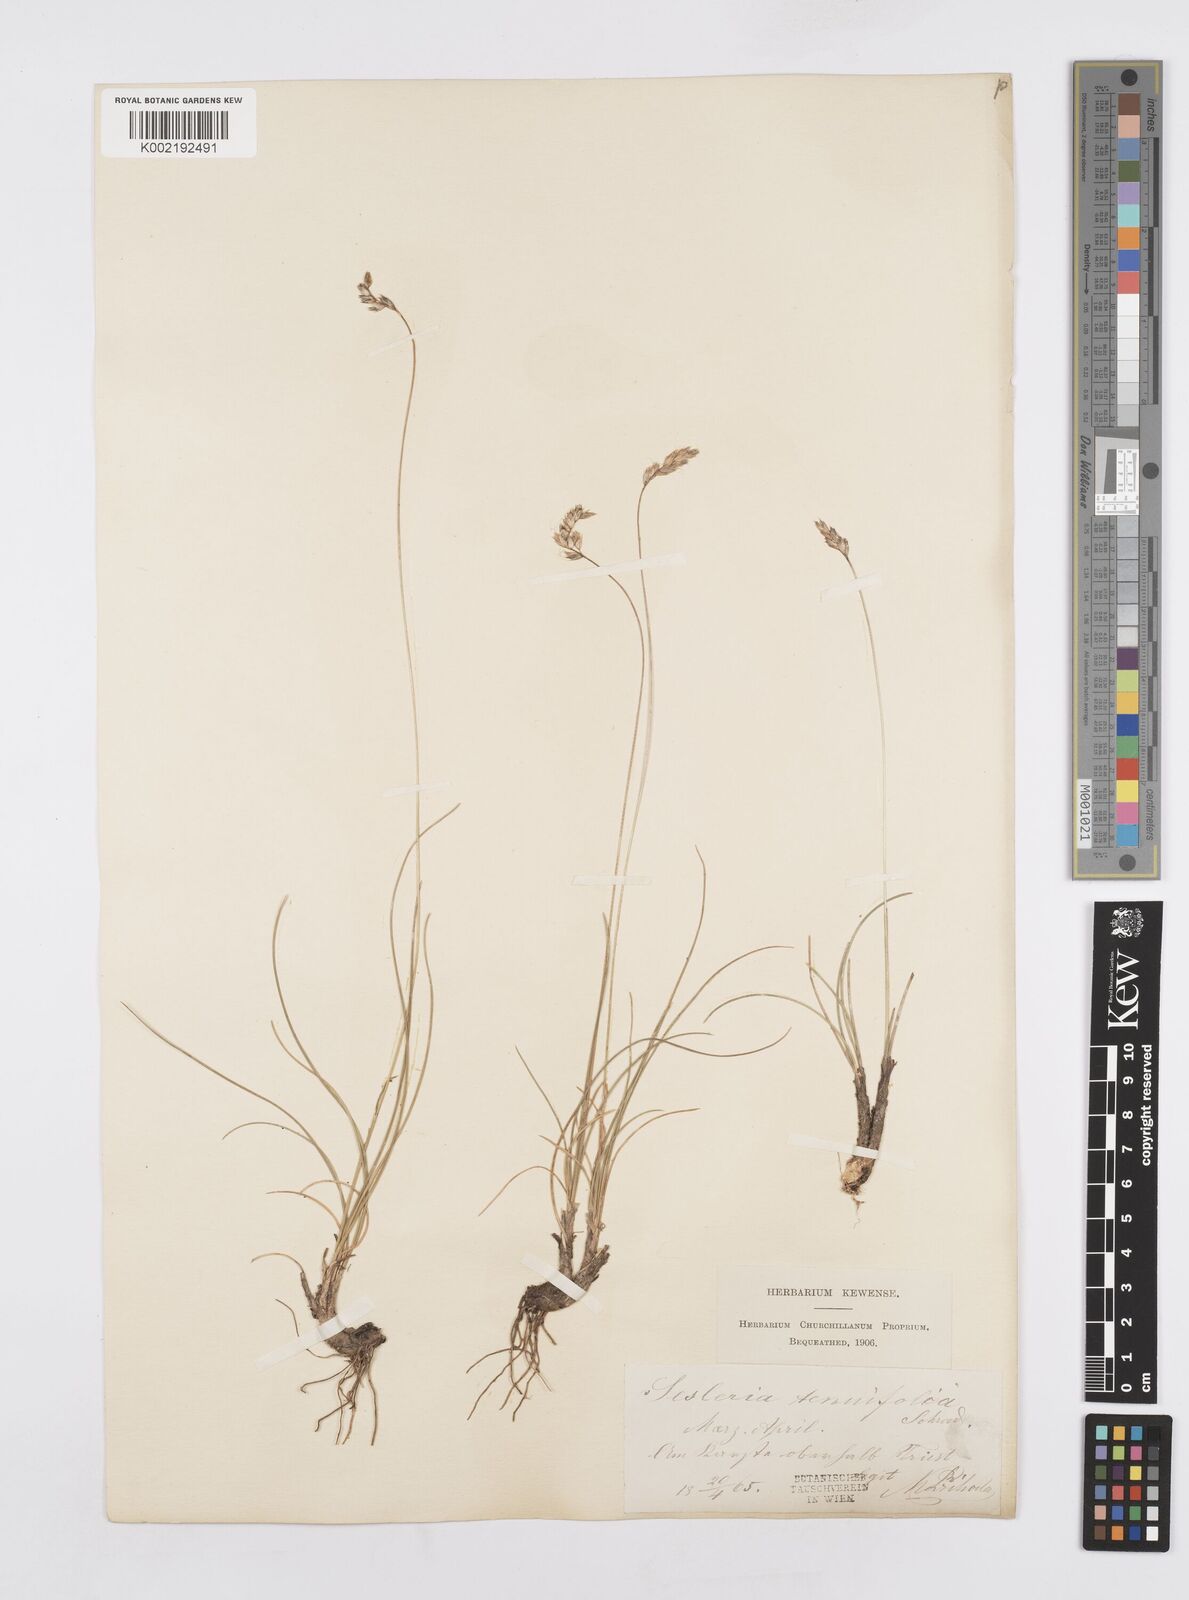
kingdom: Plantae
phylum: Tracheophyta
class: Liliopsida
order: Poales
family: Poaceae
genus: Sesleria
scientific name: Sesleria juncifolia
